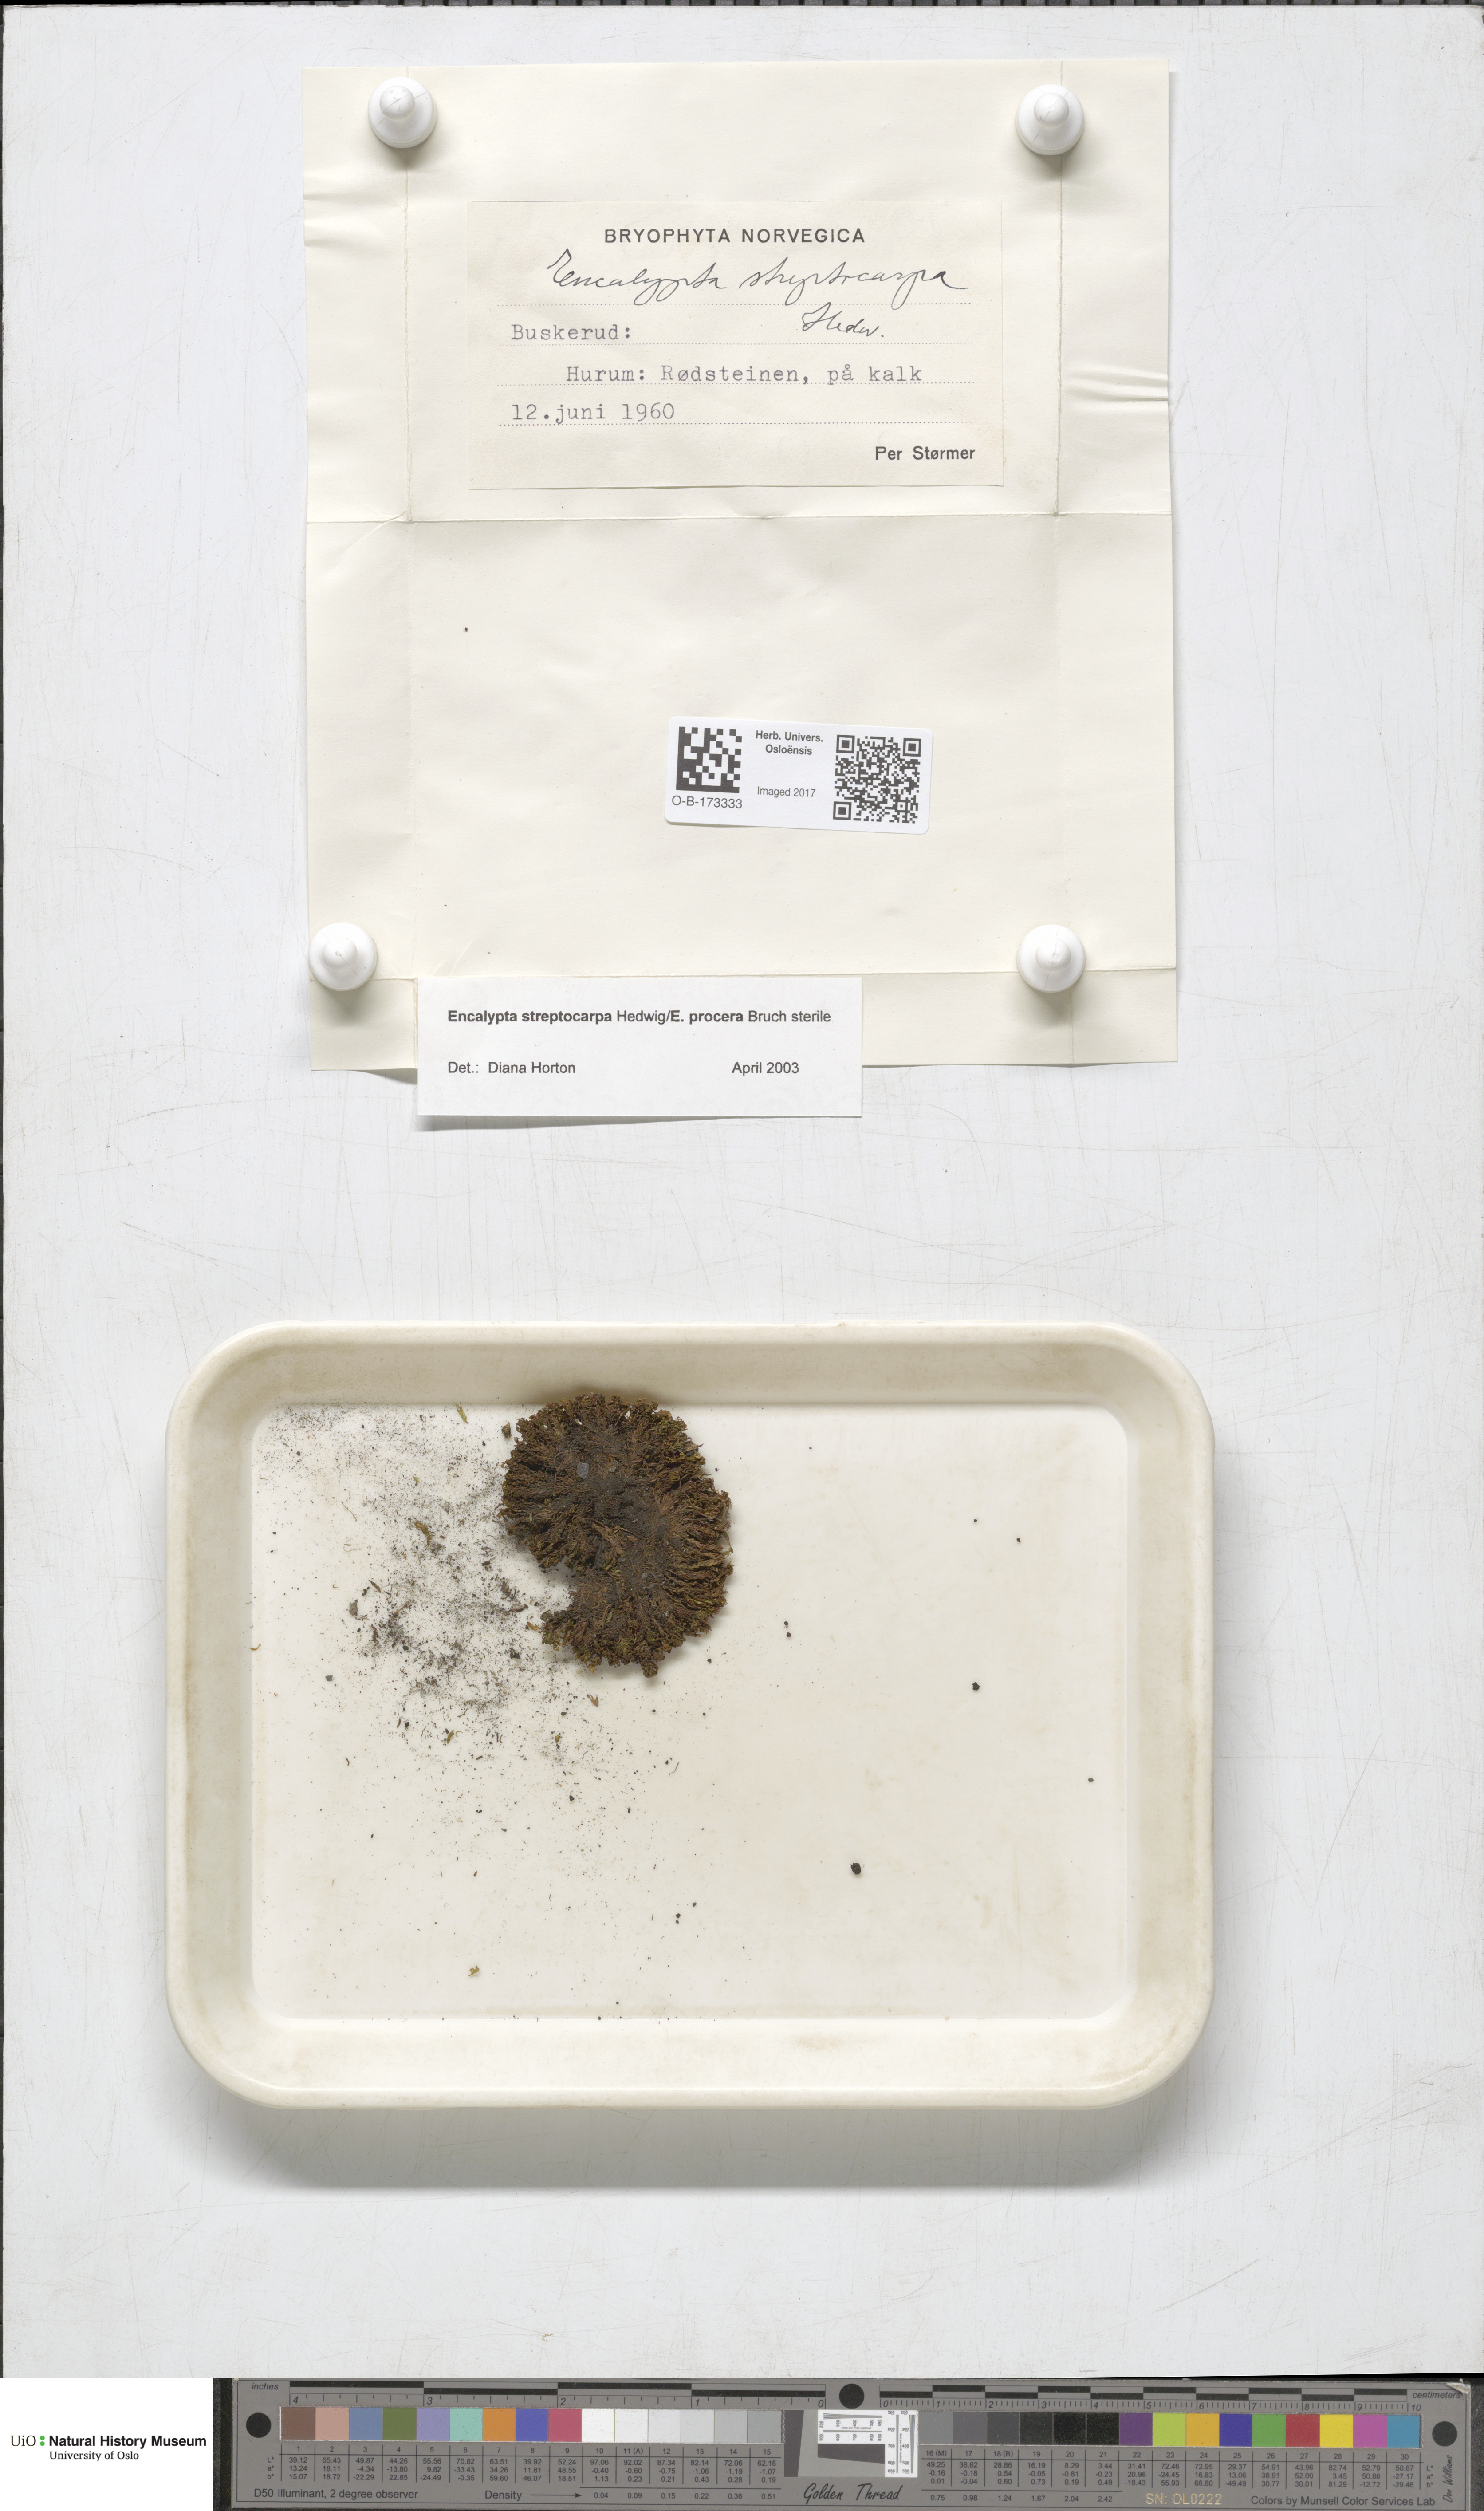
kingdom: Plantae
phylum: Bryophyta
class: Bryopsida
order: Encalyptales
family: Encalyptaceae
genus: Encalypta
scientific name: Encalypta streptocarpa
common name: Spiral extinguisher-moss
